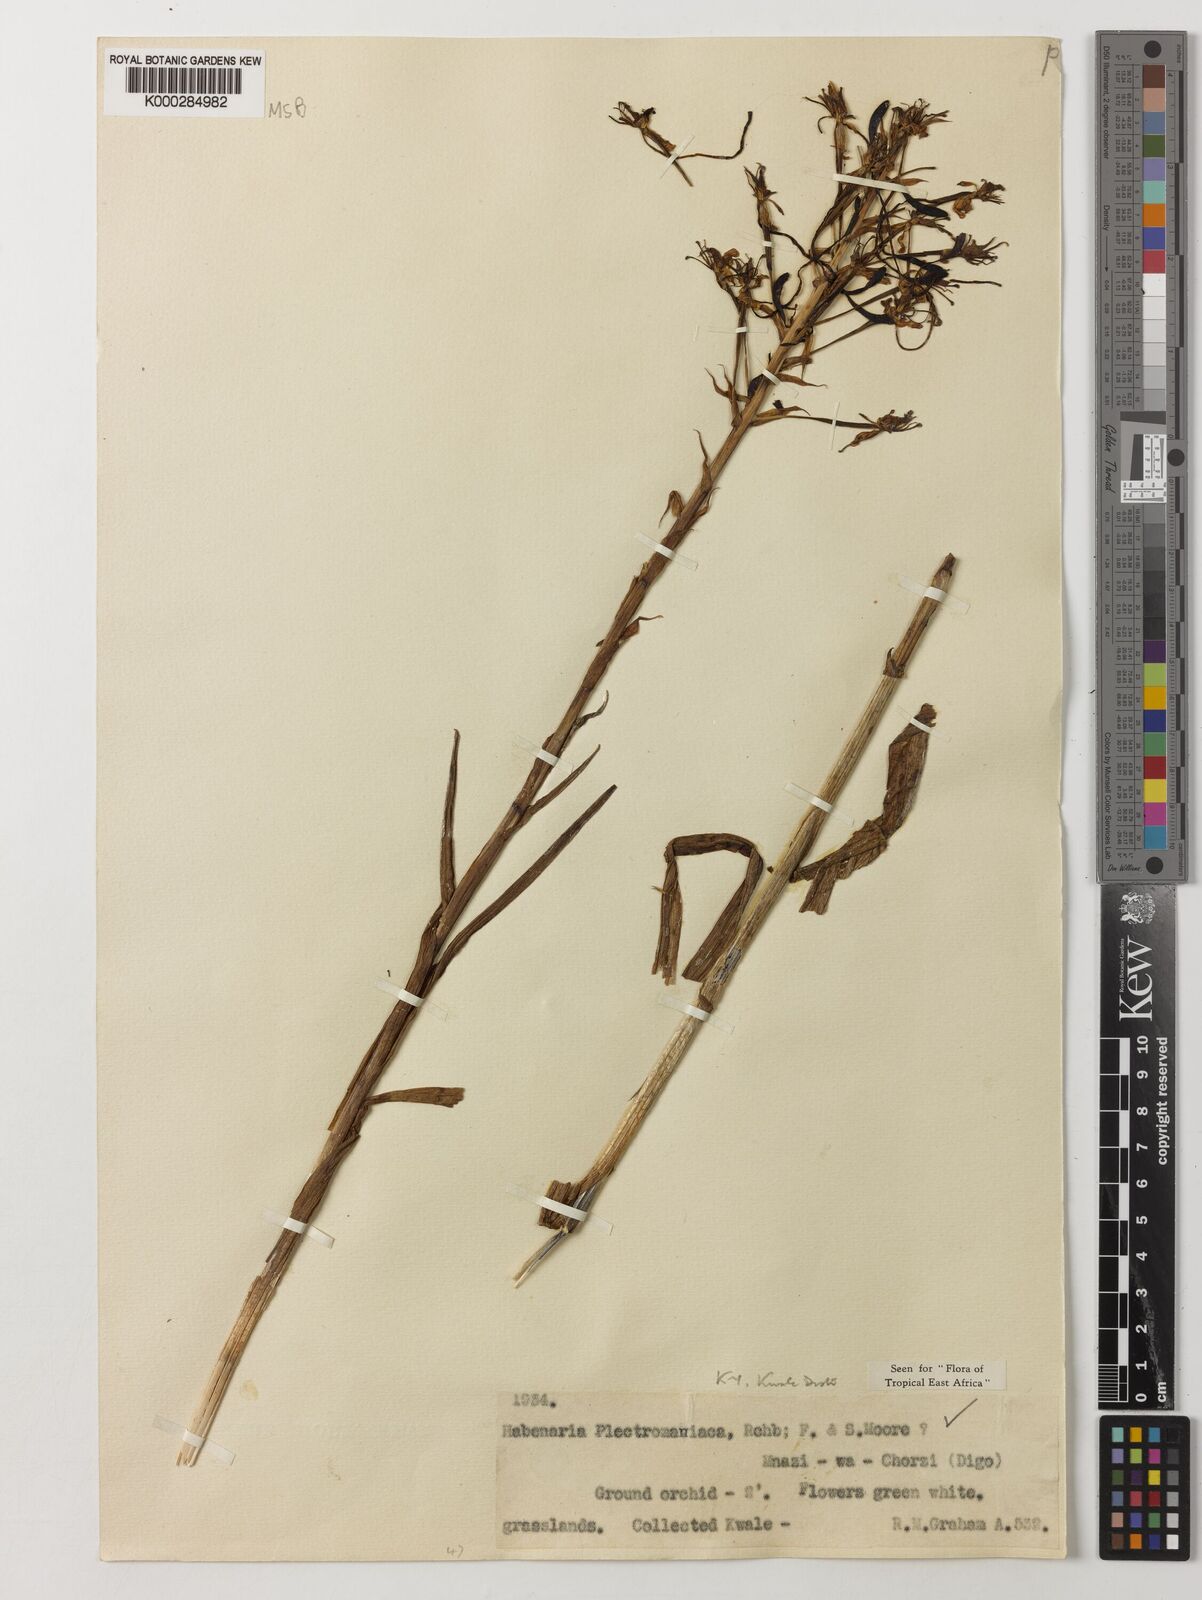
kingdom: Plantae
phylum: Tracheophyta
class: Liliopsida
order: Asparagales
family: Orchidaceae
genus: Habenaria
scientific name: Habenaria plectromaniaca
